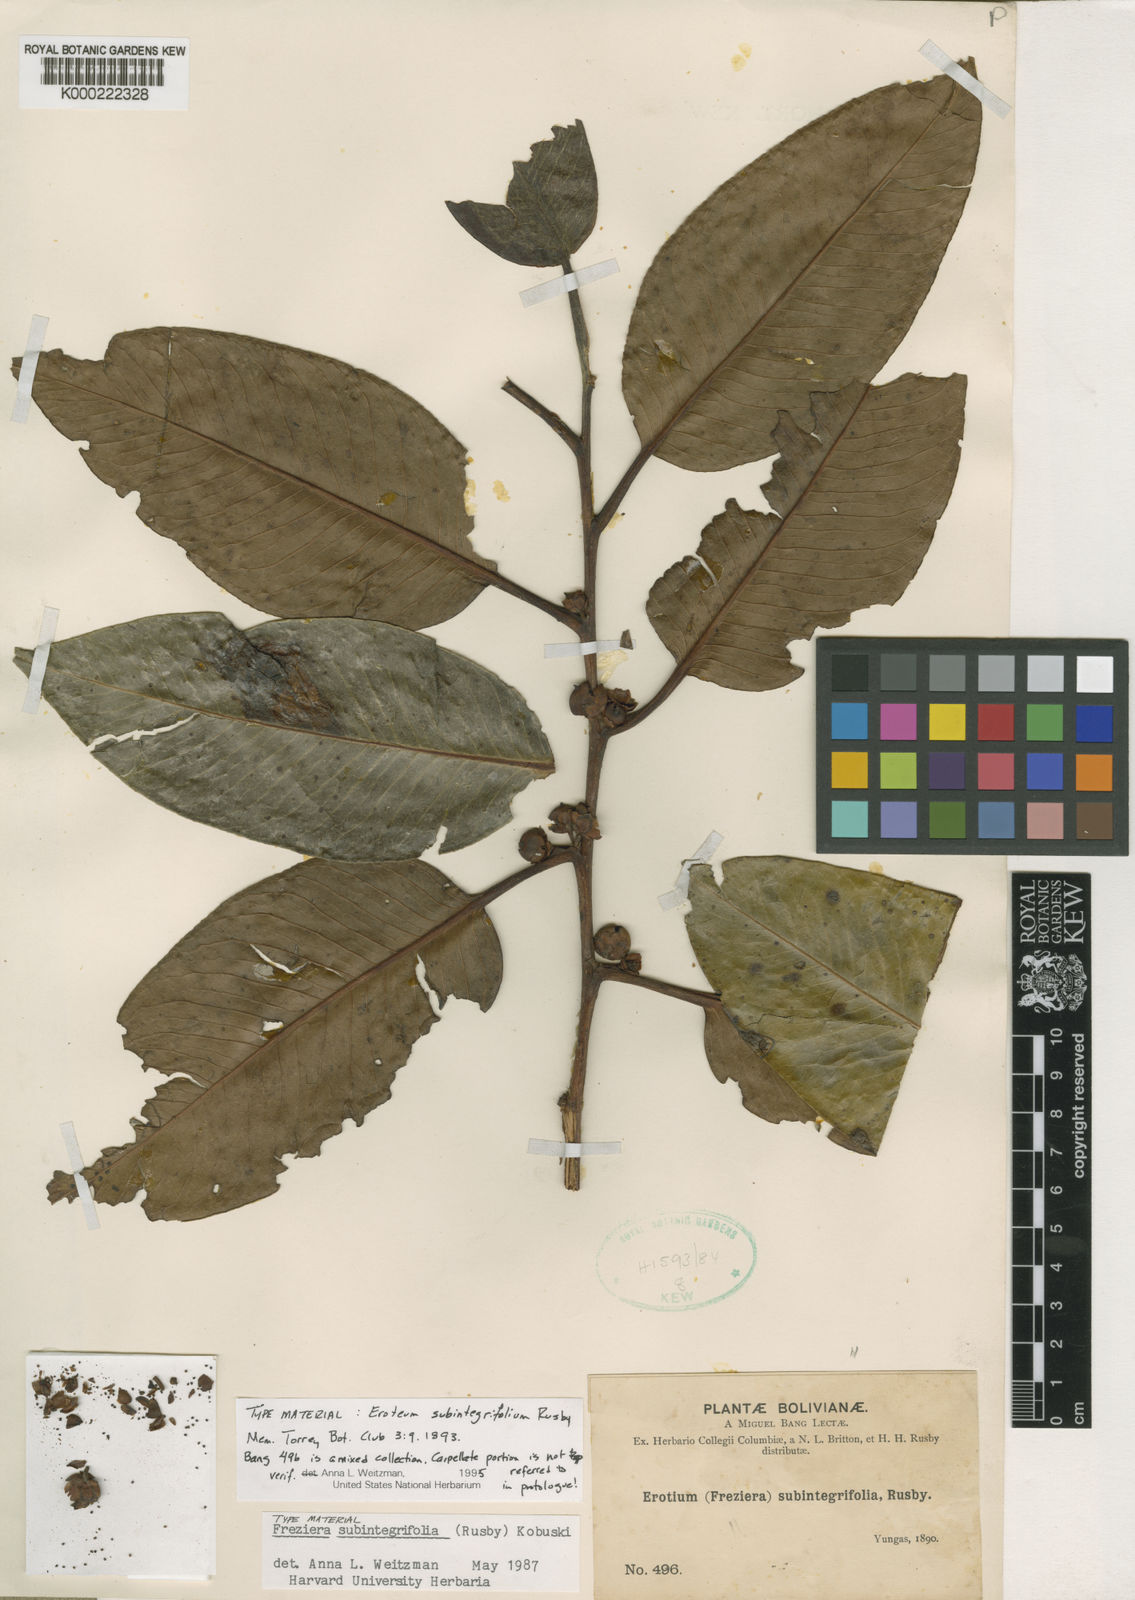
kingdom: Plantae
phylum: Tracheophyta
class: Magnoliopsida
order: Ericales
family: Pentaphylacaceae
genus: Freziera
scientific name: Freziera subintegrifolia
